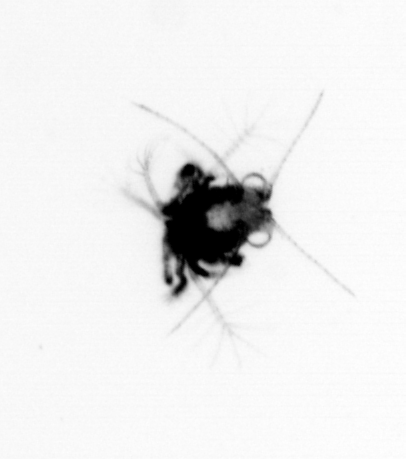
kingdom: Animalia
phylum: Arthropoda
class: Malacostraca
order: Decapoda
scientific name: Decapoda
